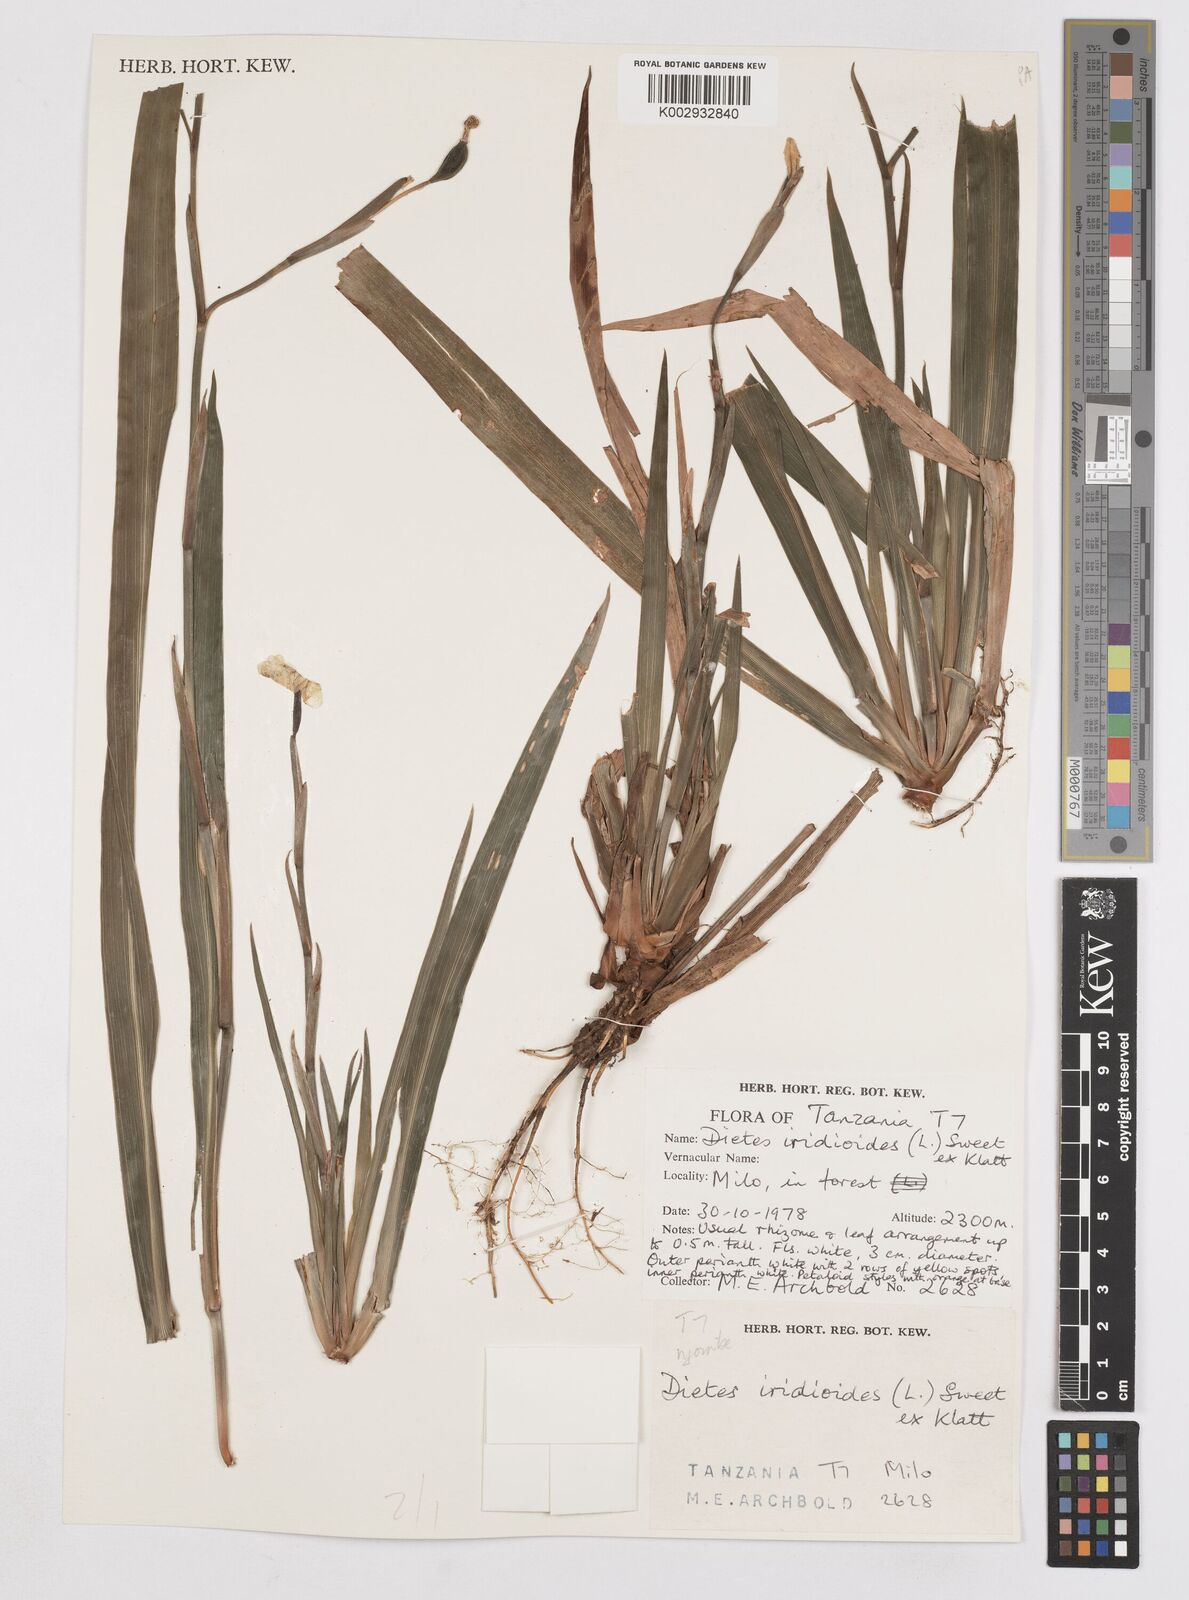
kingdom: Plantae
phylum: Tracheophyta
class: Liliopsida
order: Asparagales
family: Iridaceae
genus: Dietes
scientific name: Dietes iridioides
